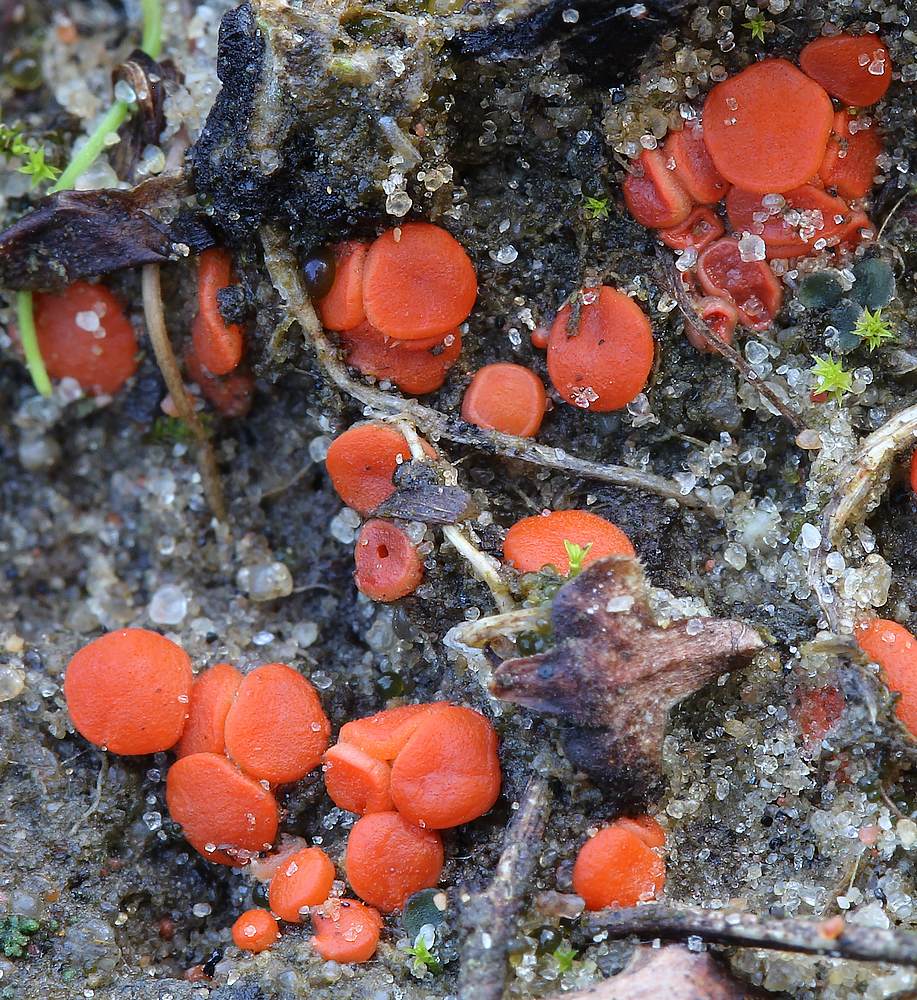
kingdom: Fungi
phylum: Ascomycota
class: Pezizomycetes
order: Pezizales
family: Pulvinulaceae
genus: Pulvinula
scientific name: Pulvinula convexella
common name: stor pudebæger
